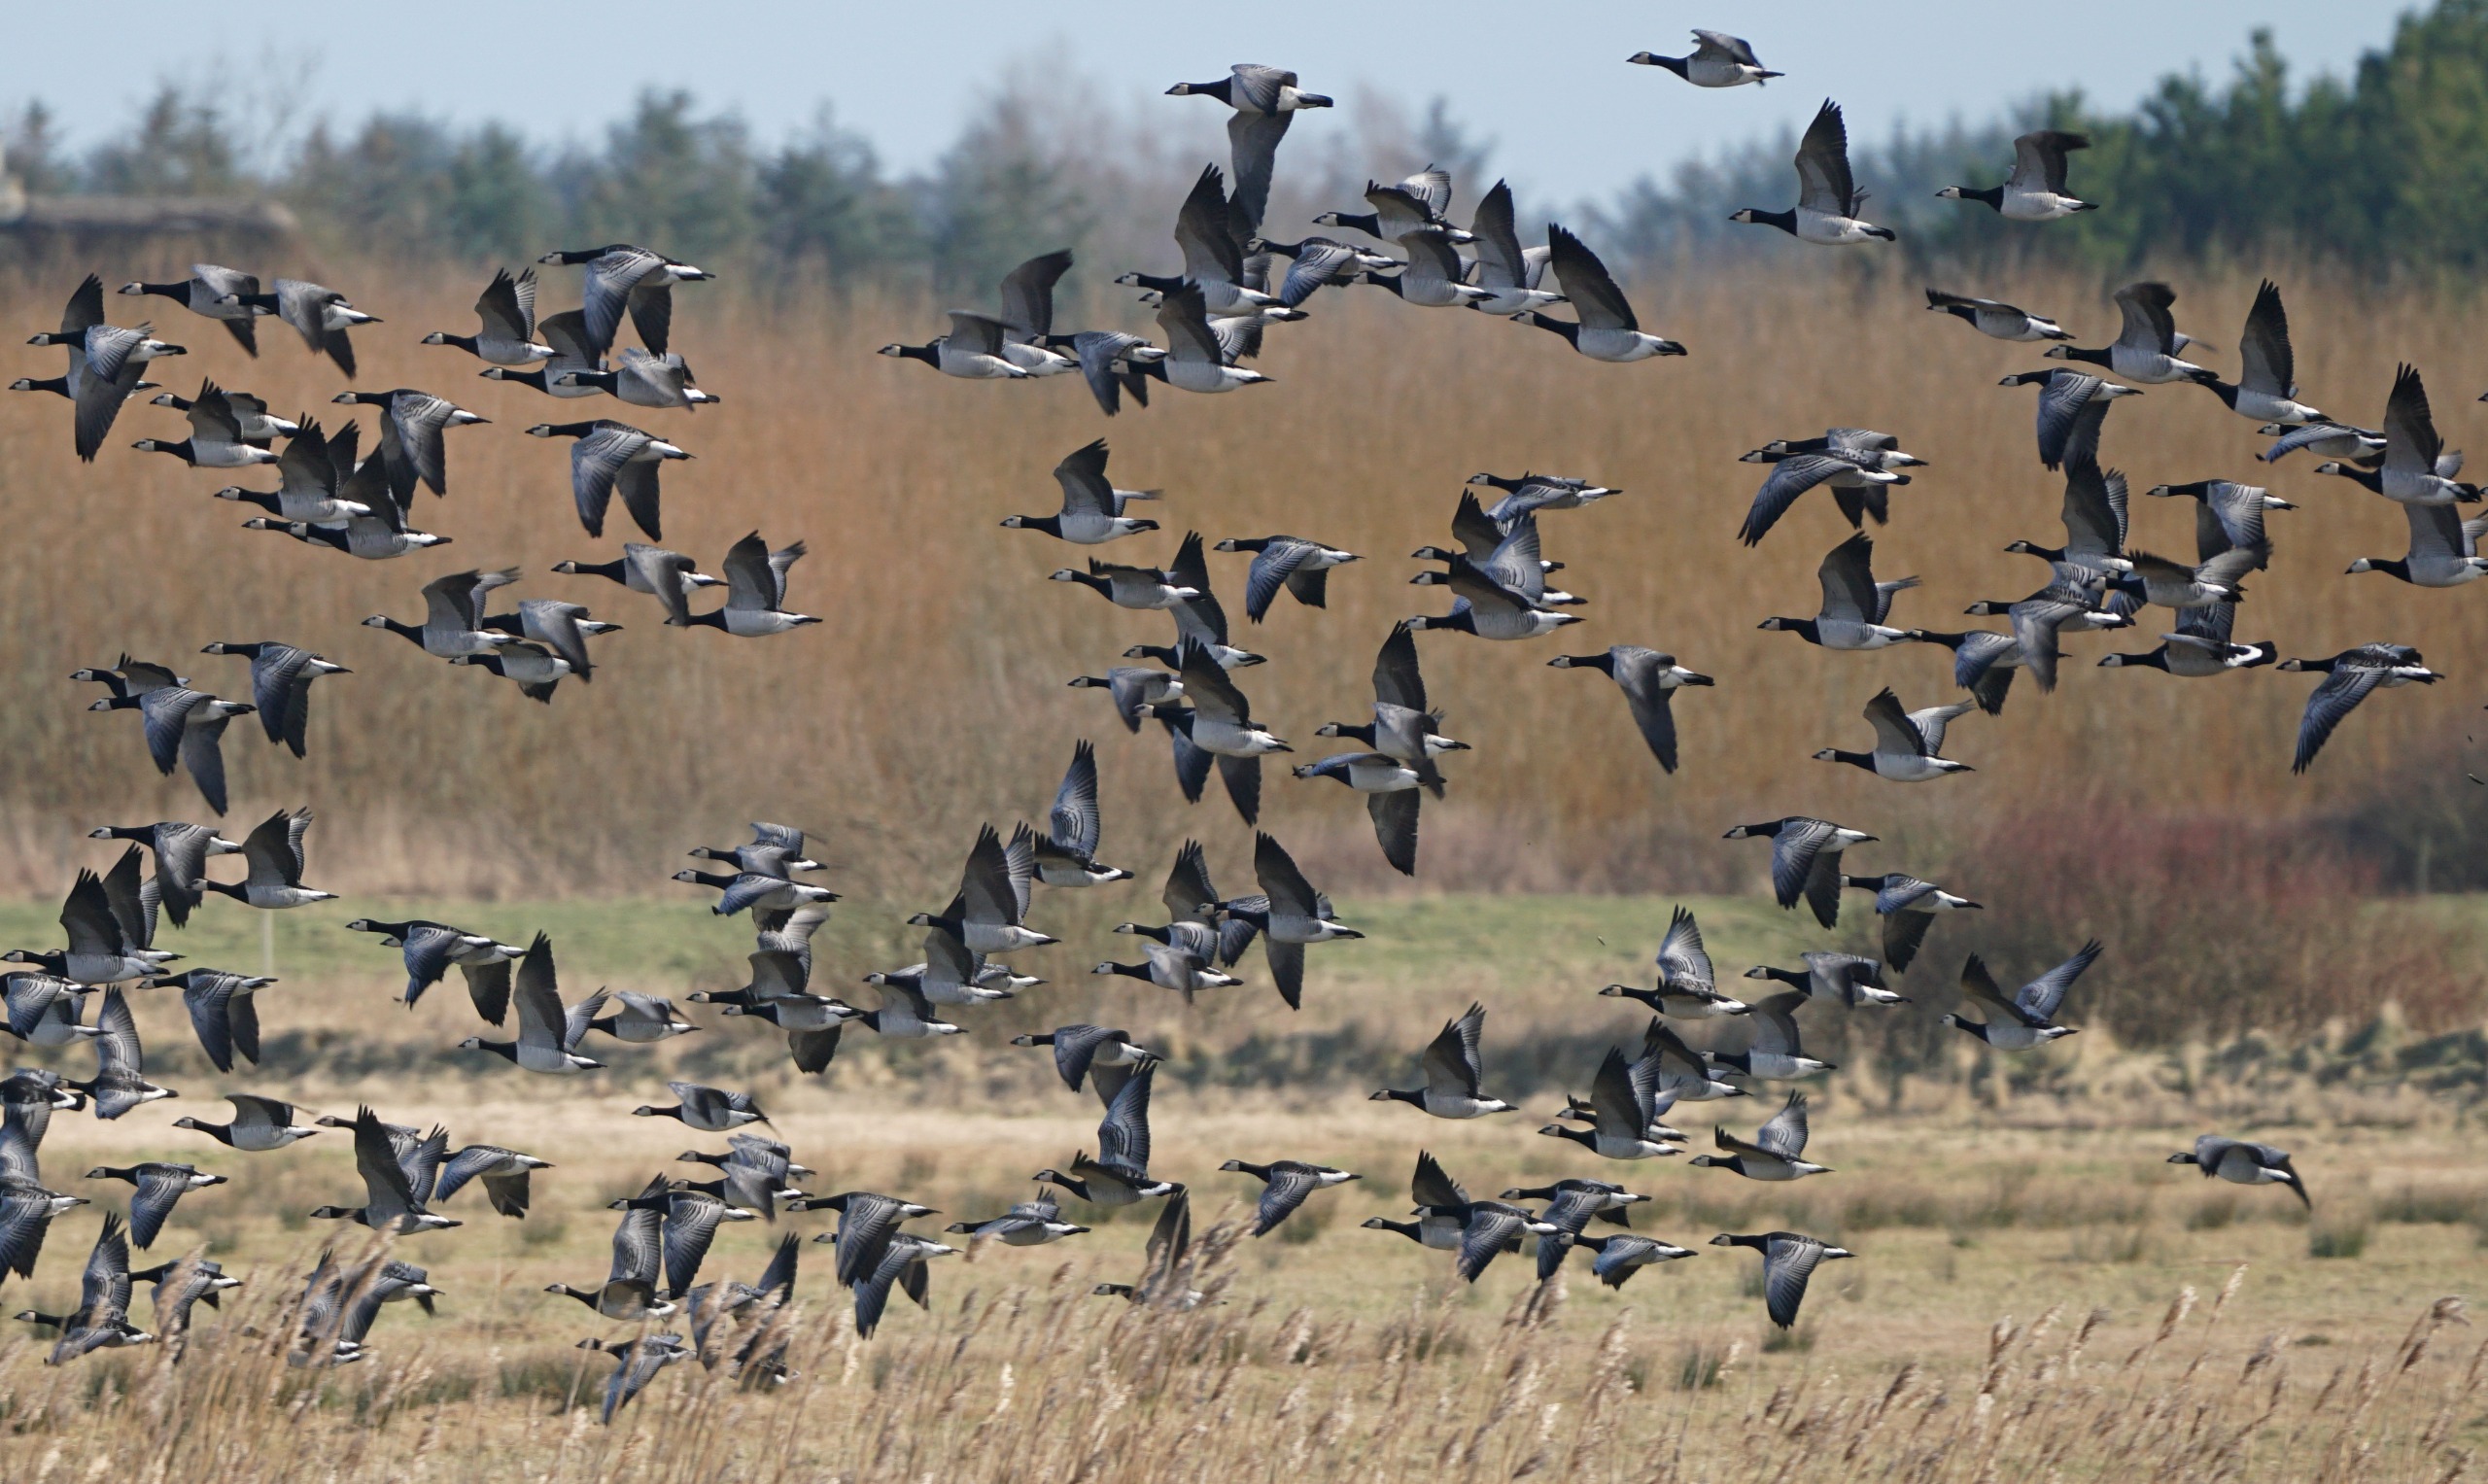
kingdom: Animalia
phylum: Chordata
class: Aves
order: Anseriformes
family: Anatidae
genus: Branta
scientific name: Branta leucopsis
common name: Bramgås
